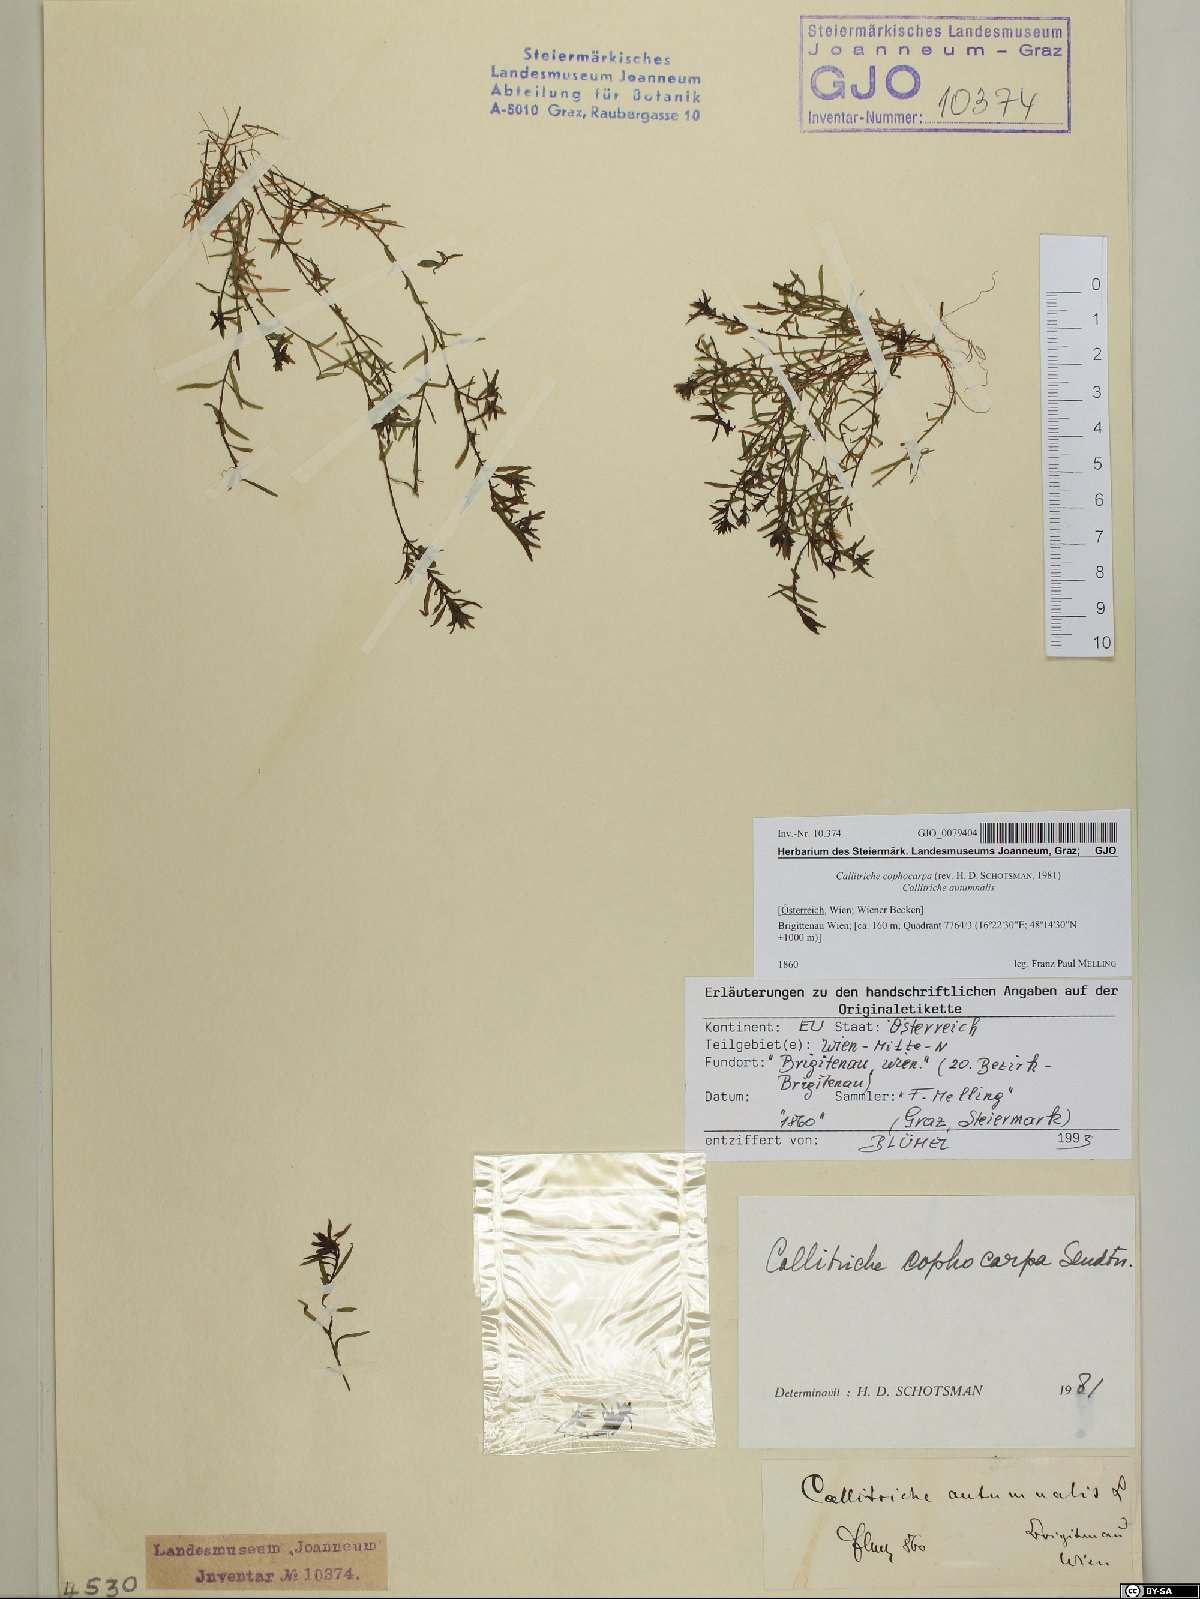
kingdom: Plantae
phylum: Tracheophyta
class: Magnoliopsida
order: Lamiales
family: Plantaginaceae
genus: Callitriche
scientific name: Callitriche cophocarpa
